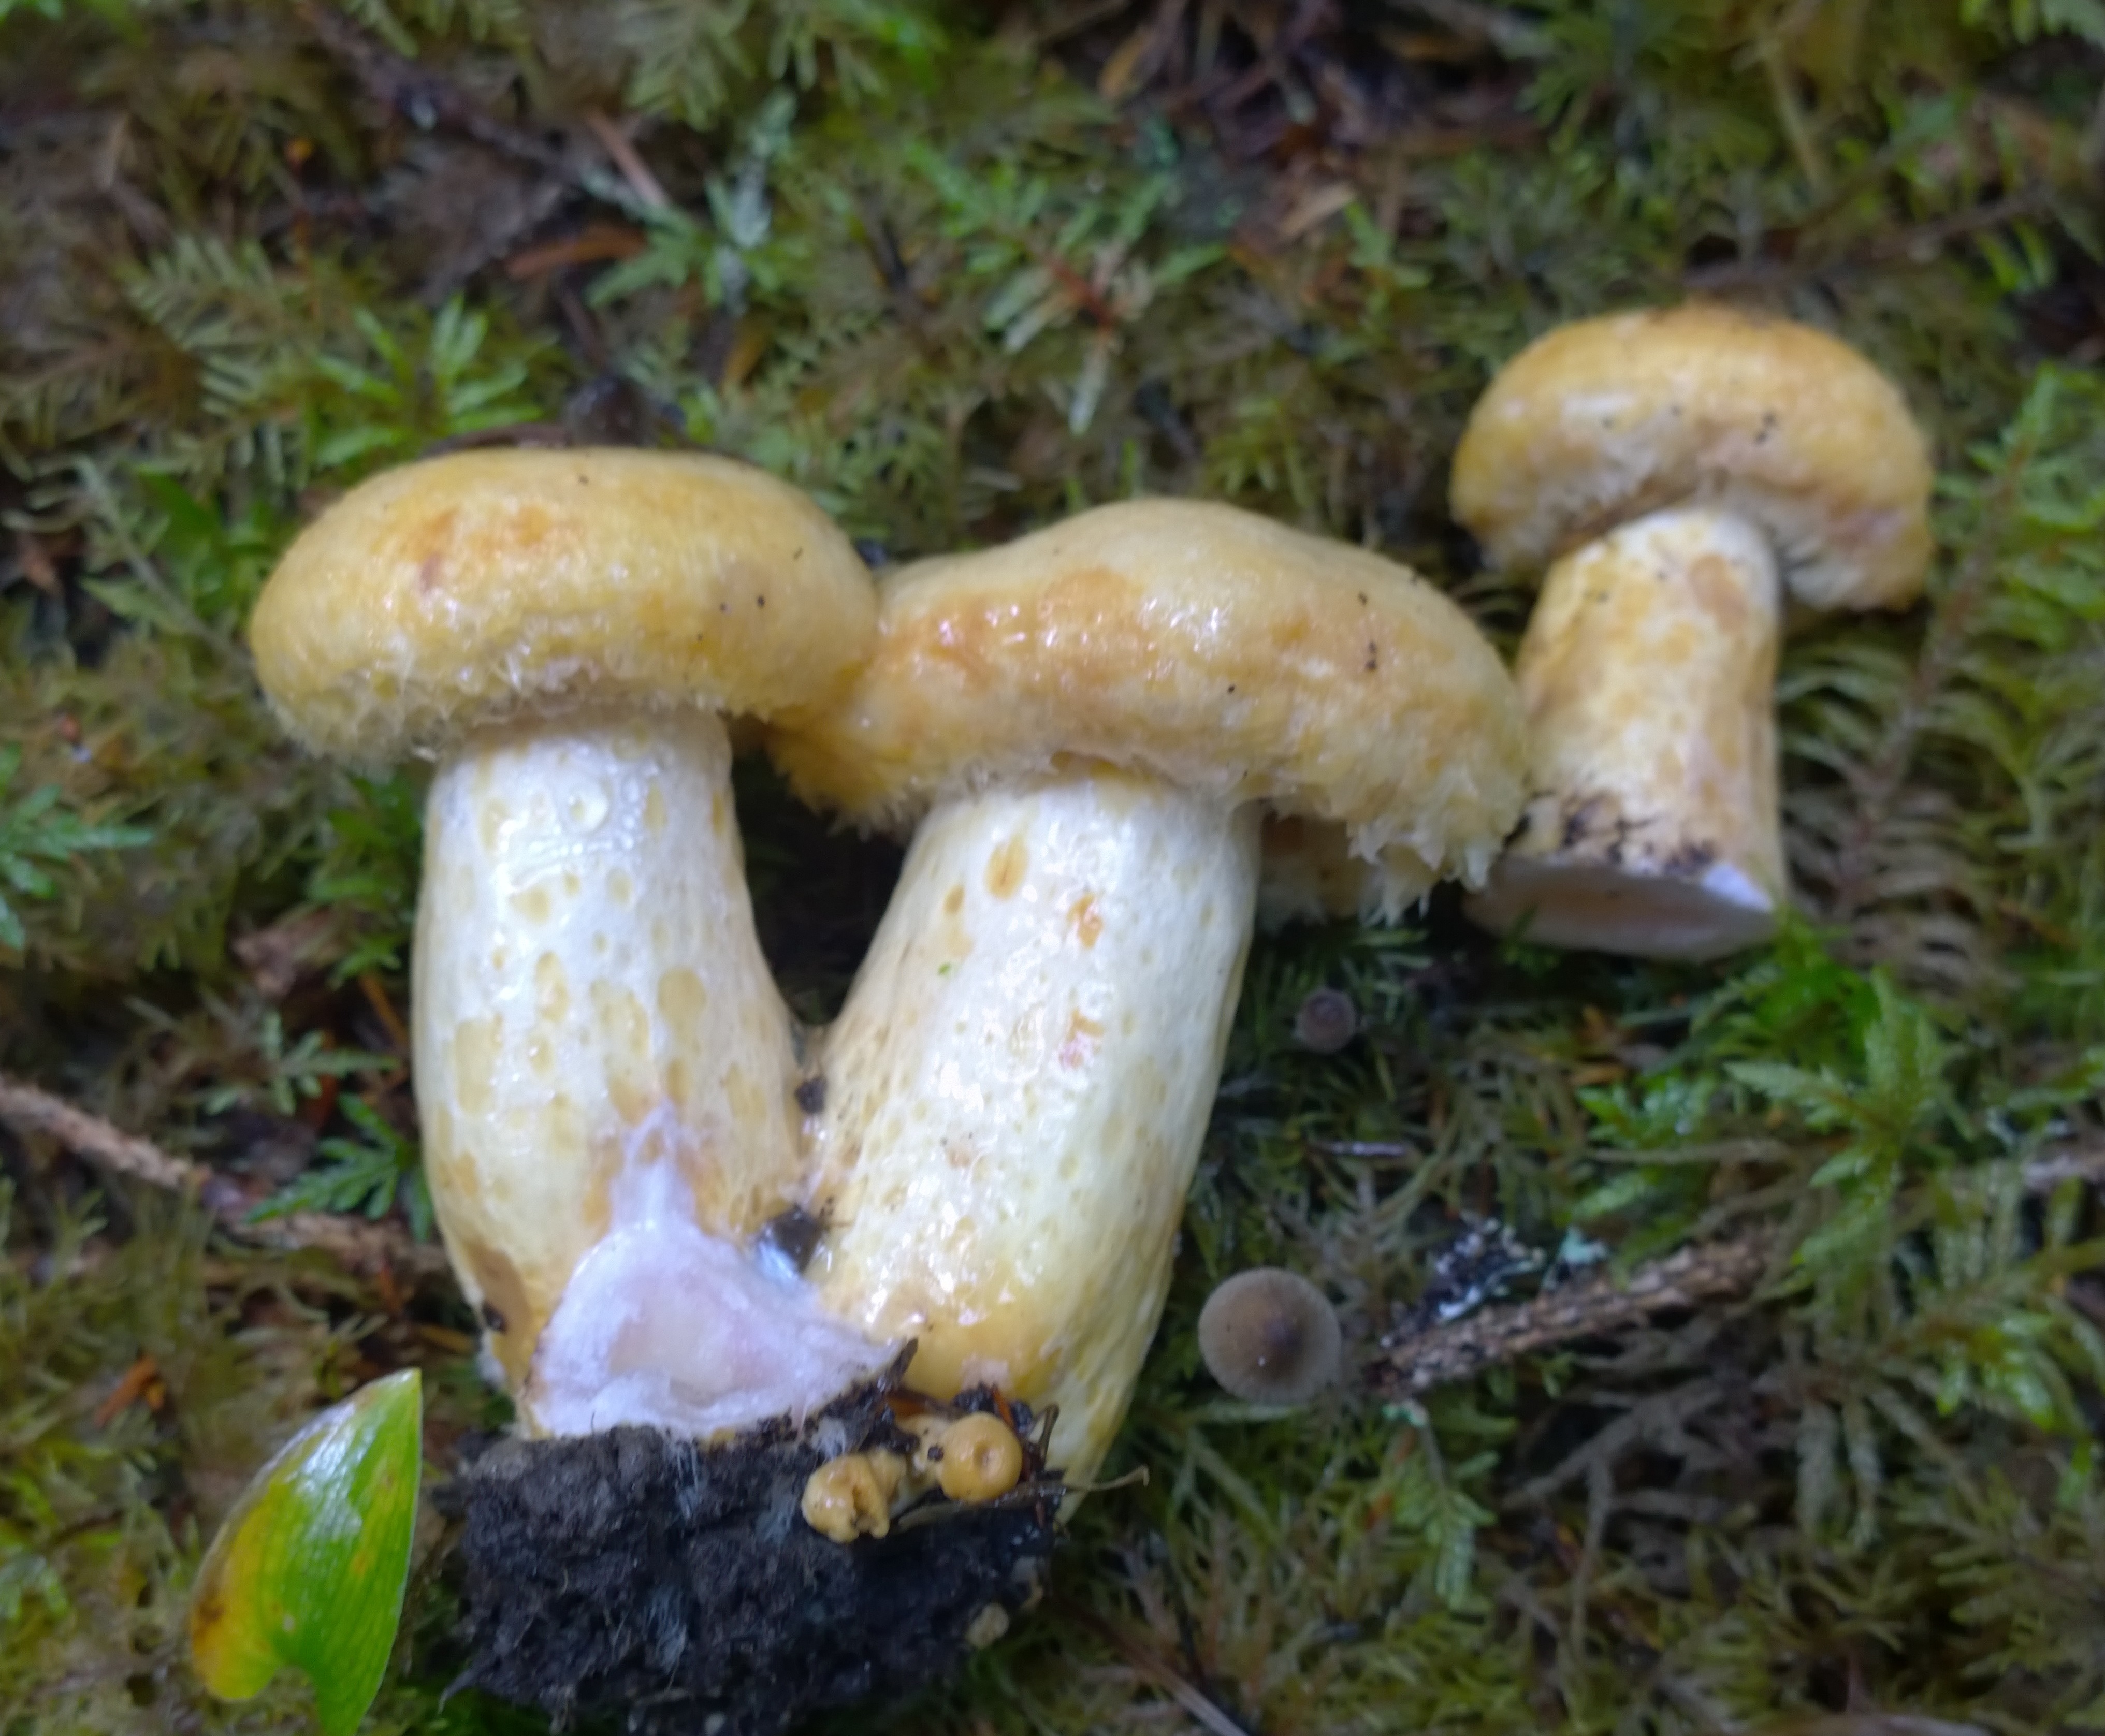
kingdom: Fungi
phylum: Basidiomycota
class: Agaricomycetes
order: Russulales
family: Russulaceae
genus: Lactarius
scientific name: Lactarius repraesentaneus
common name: Yellow bearded milkcap
